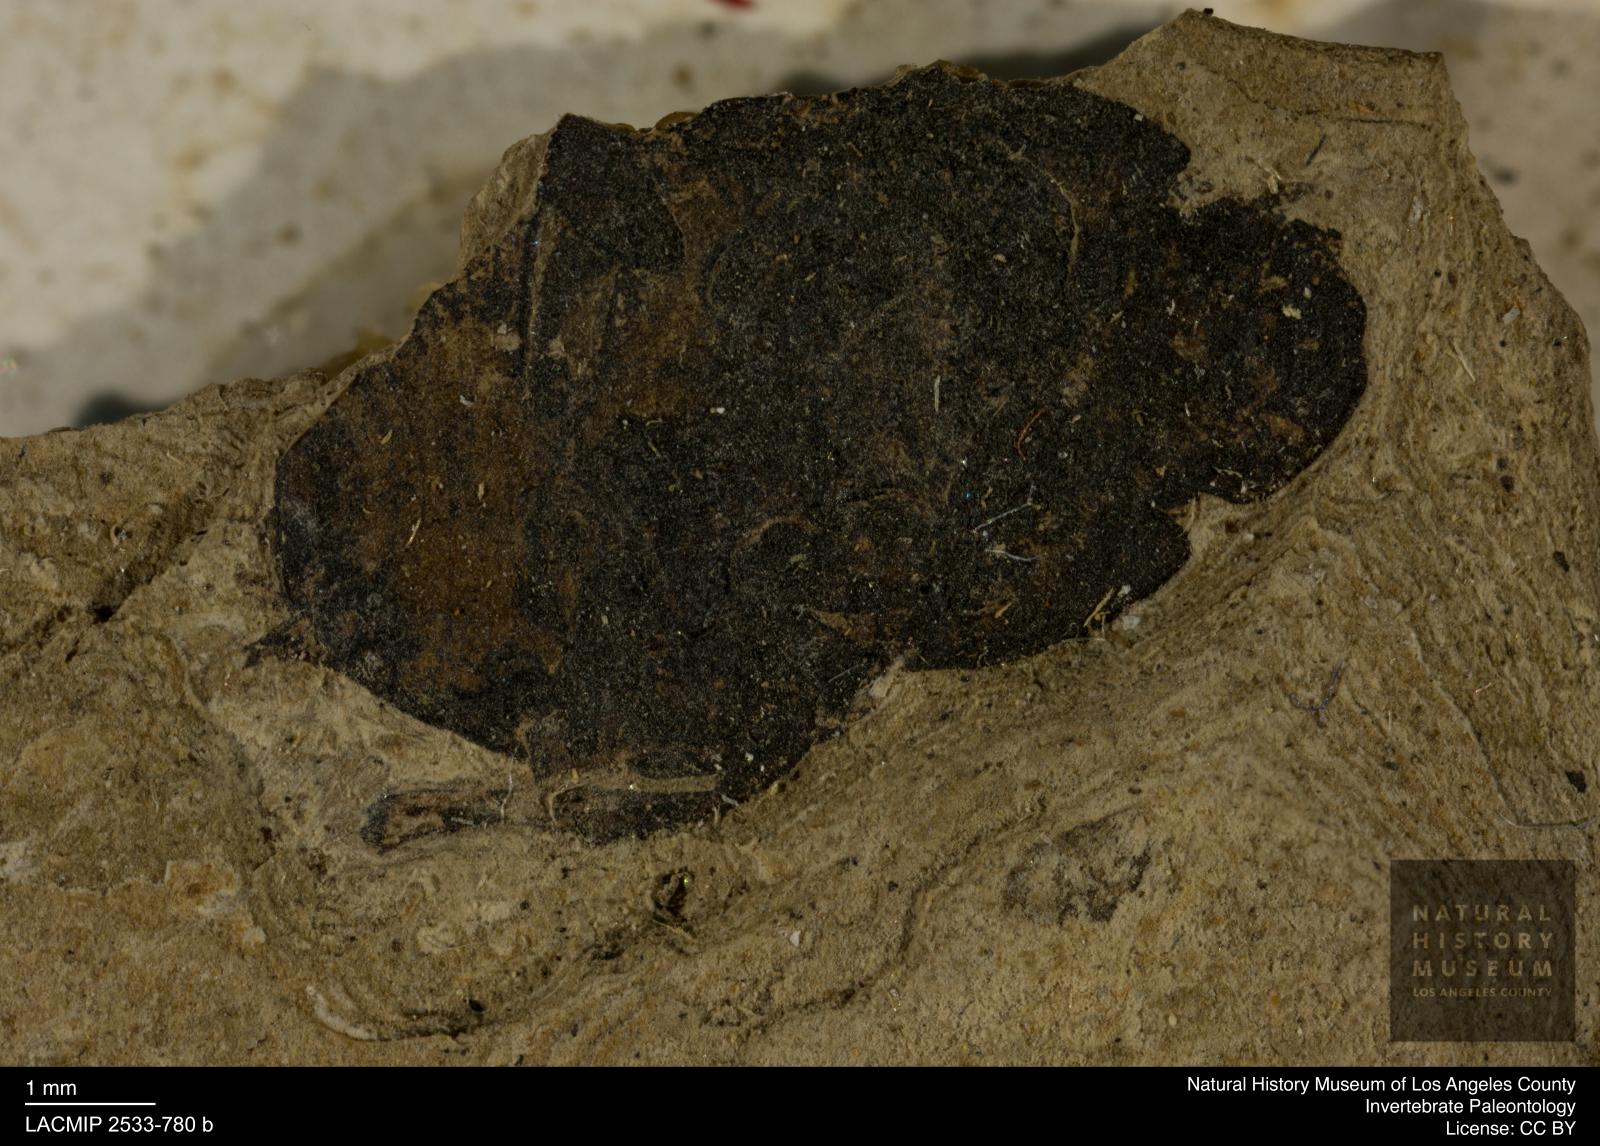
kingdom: Animalia
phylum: Arthropoda
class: Insecta
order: Coleoptera
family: Scarabaeidae
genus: Onthophagus
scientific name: Onthophagus statzi
